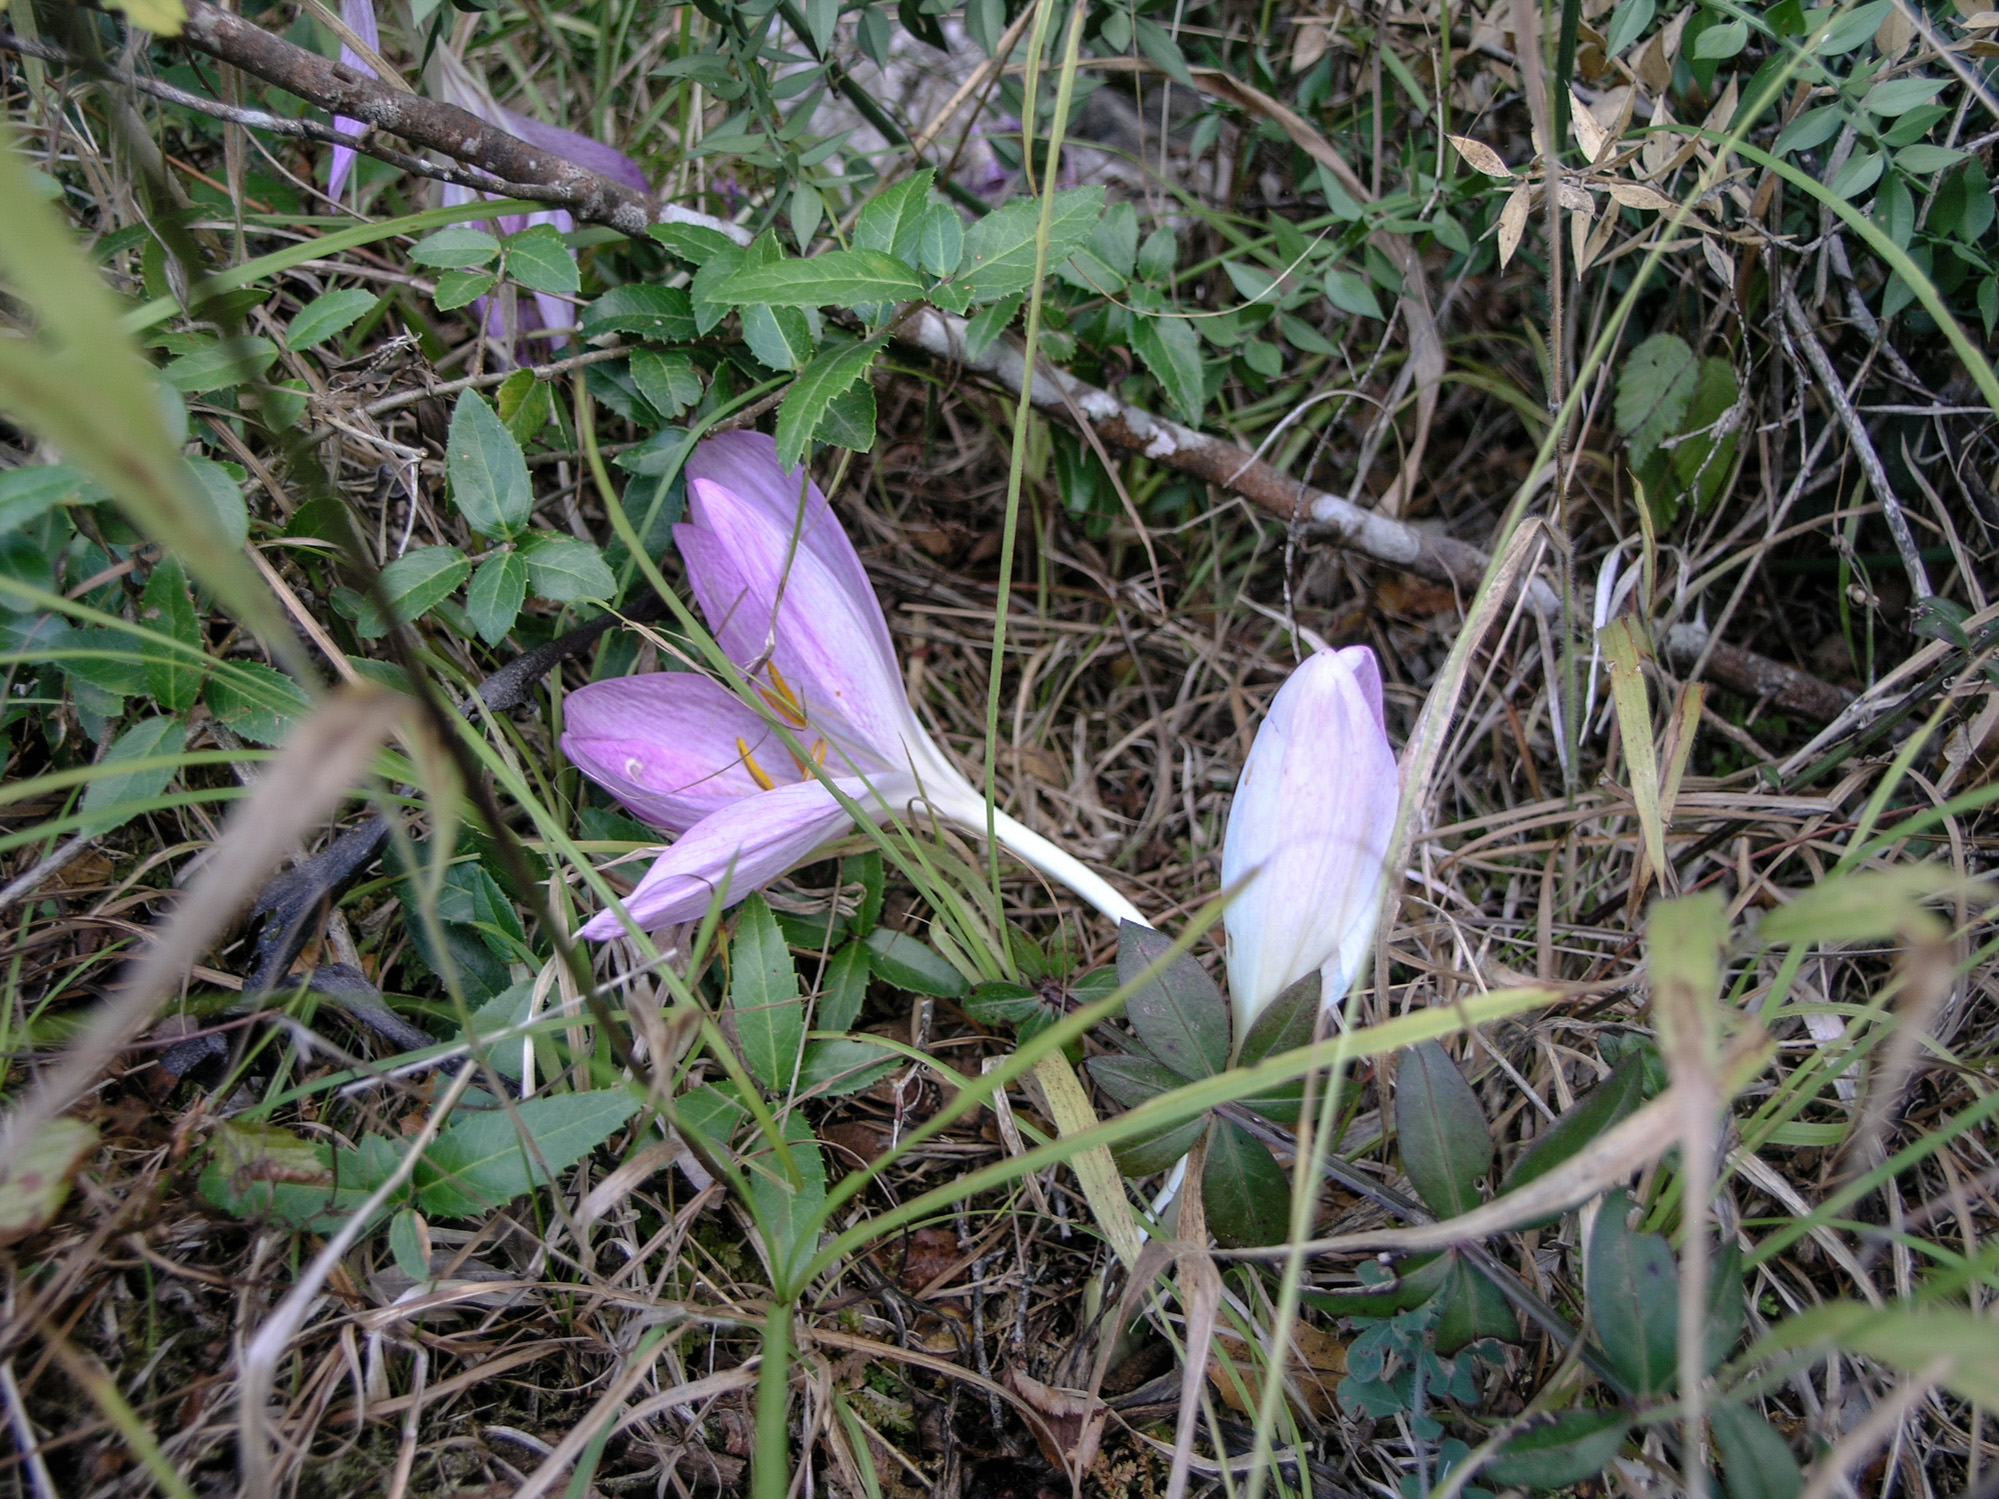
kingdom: Plantae
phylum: Tracheophyta
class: Liliopsida
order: Liliales
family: Colchicaceae
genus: Colchicum
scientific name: Colchicum bivonae
